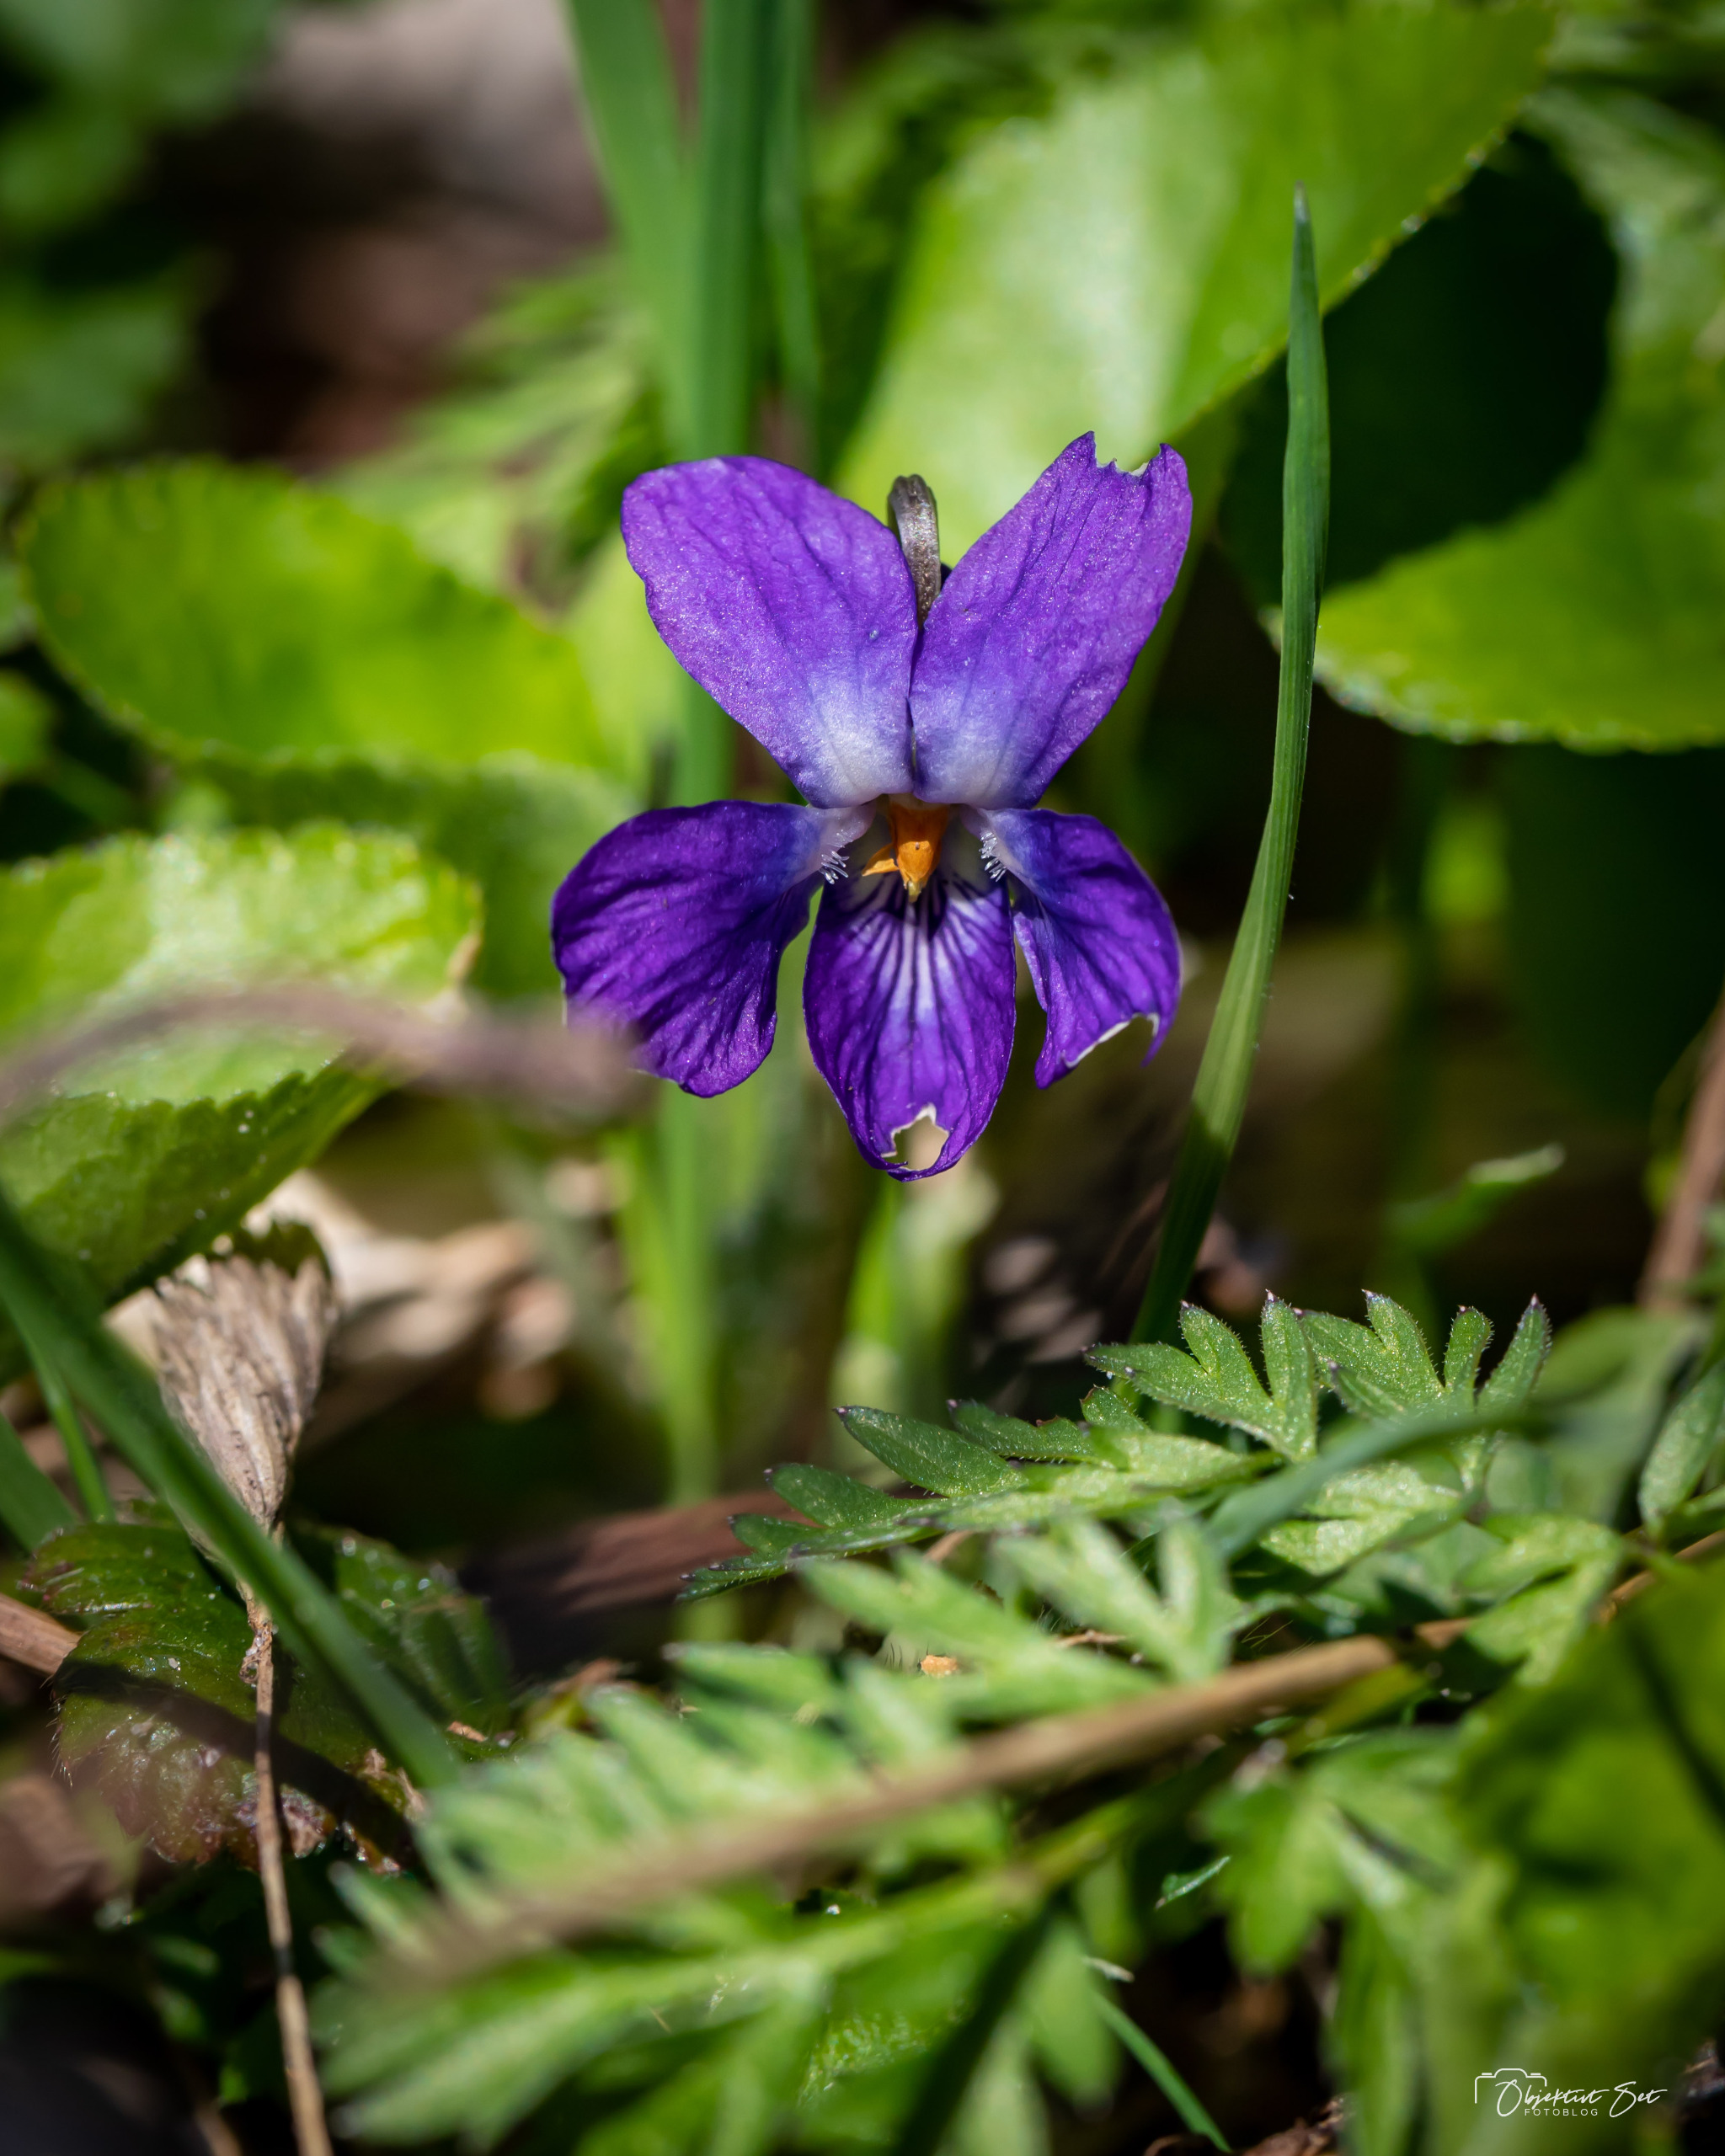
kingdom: Plantae
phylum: Tracheophyta
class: Magnoliopsida
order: Malpighiales
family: Violaceae
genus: Viola
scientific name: Viola odorata
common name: Marts-viol
